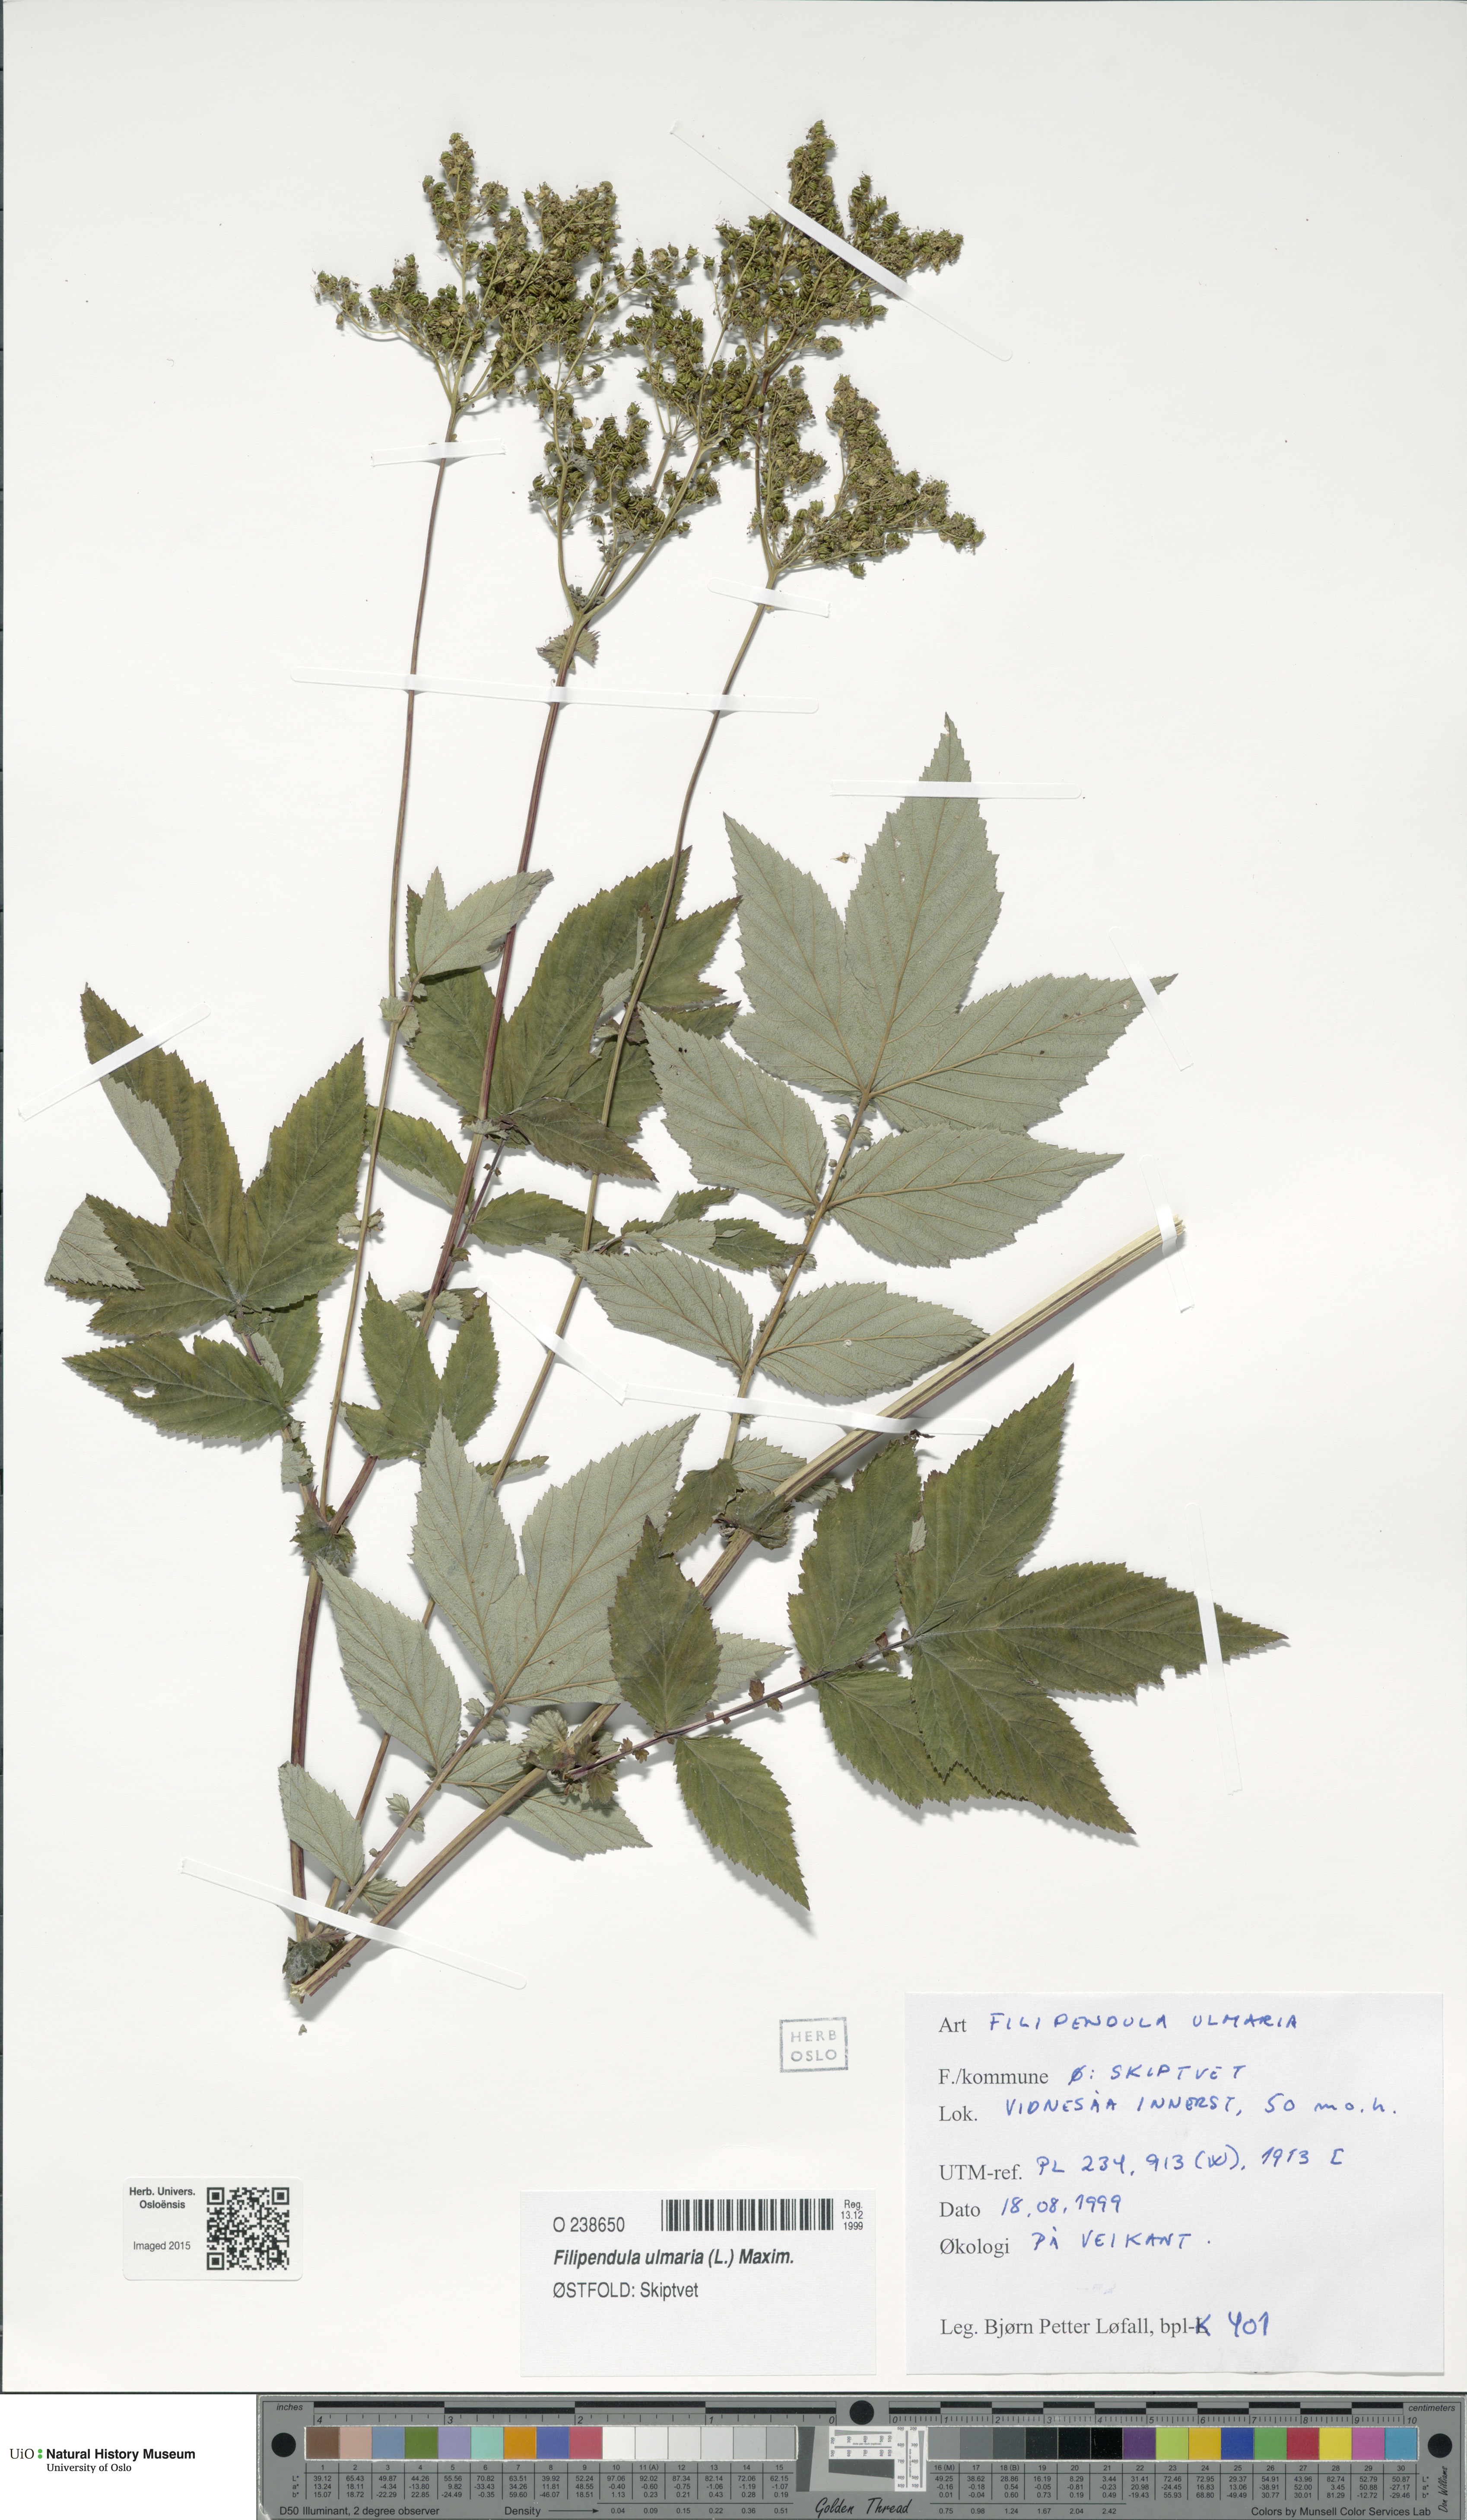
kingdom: Plantae
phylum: Tracheophyta
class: Magnoliopsida
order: Rosales
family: Rosaceae
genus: Filipendula
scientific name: Filipendula ulmaria
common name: Meadowsweet
